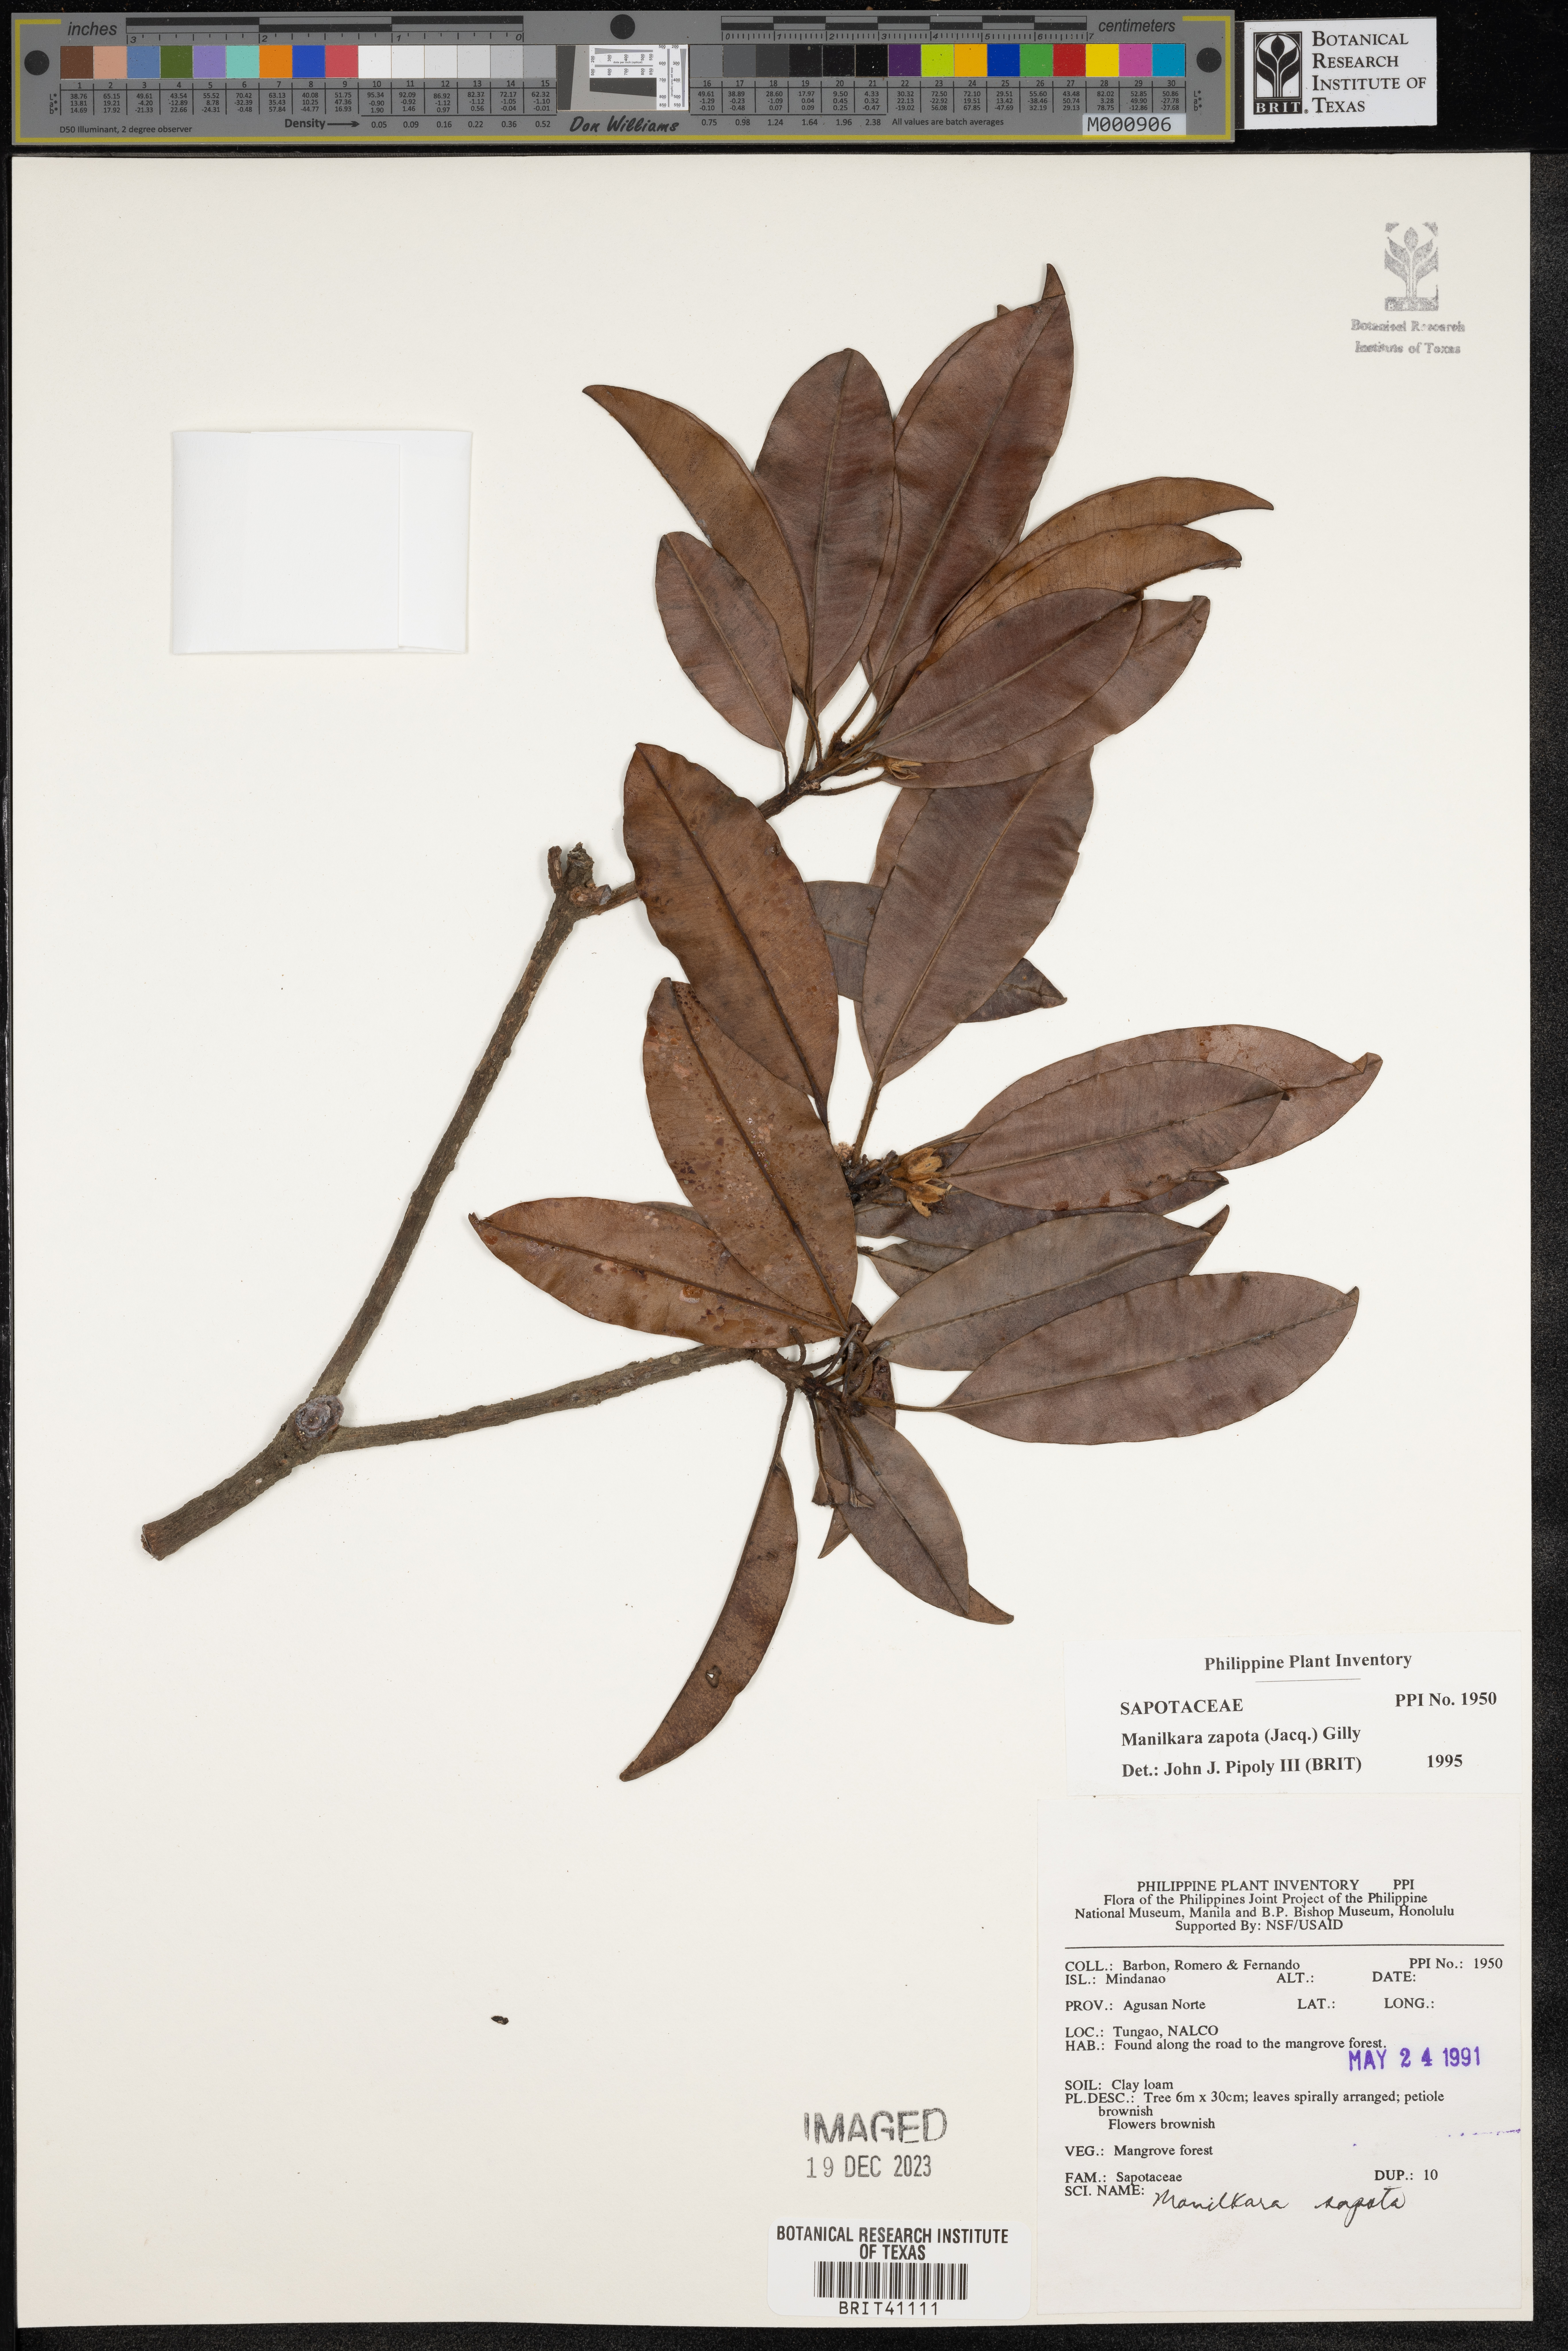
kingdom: Plantae
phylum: Tracheophyta
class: Magnoliopsida
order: Ericales
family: Sapotaceae
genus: Manilkara
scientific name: Manilkara zapota
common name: Sapodilla
